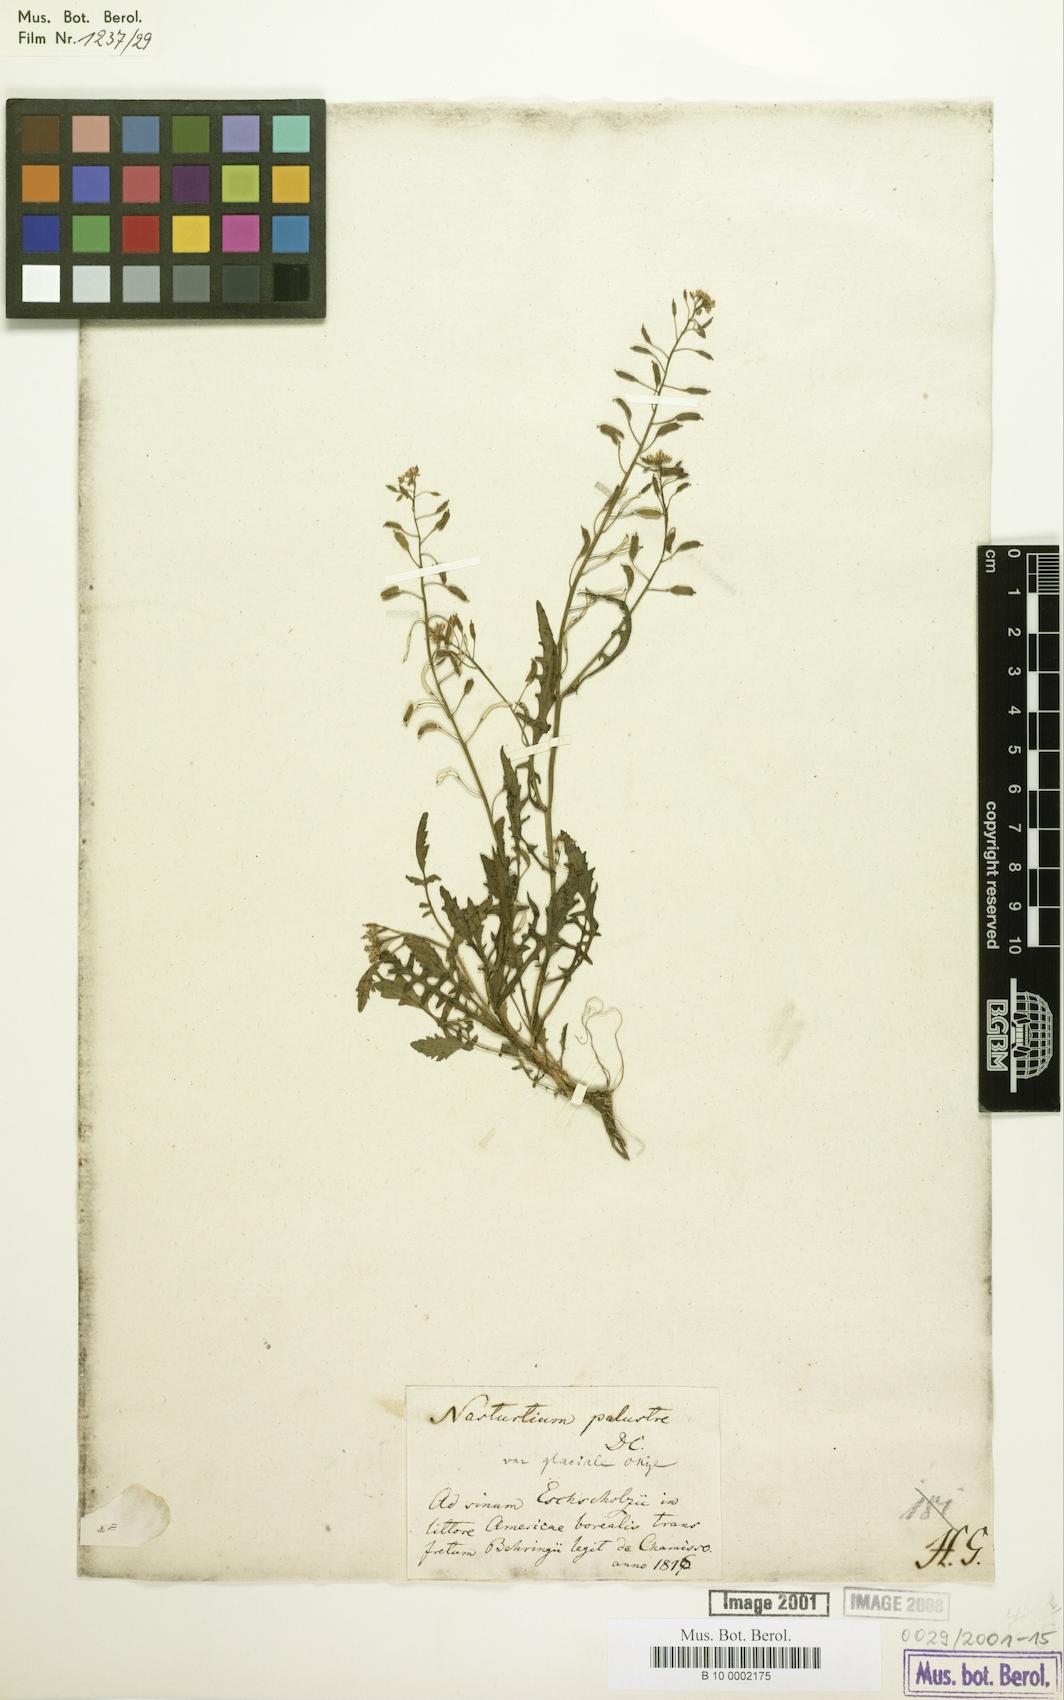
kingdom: Plantae
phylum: Tracheophyta
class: Magnoliopsida
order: Brassicales
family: Brassicaceae
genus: Rorippa
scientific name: Rorippa palustris
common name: Marsh yellow-cress
